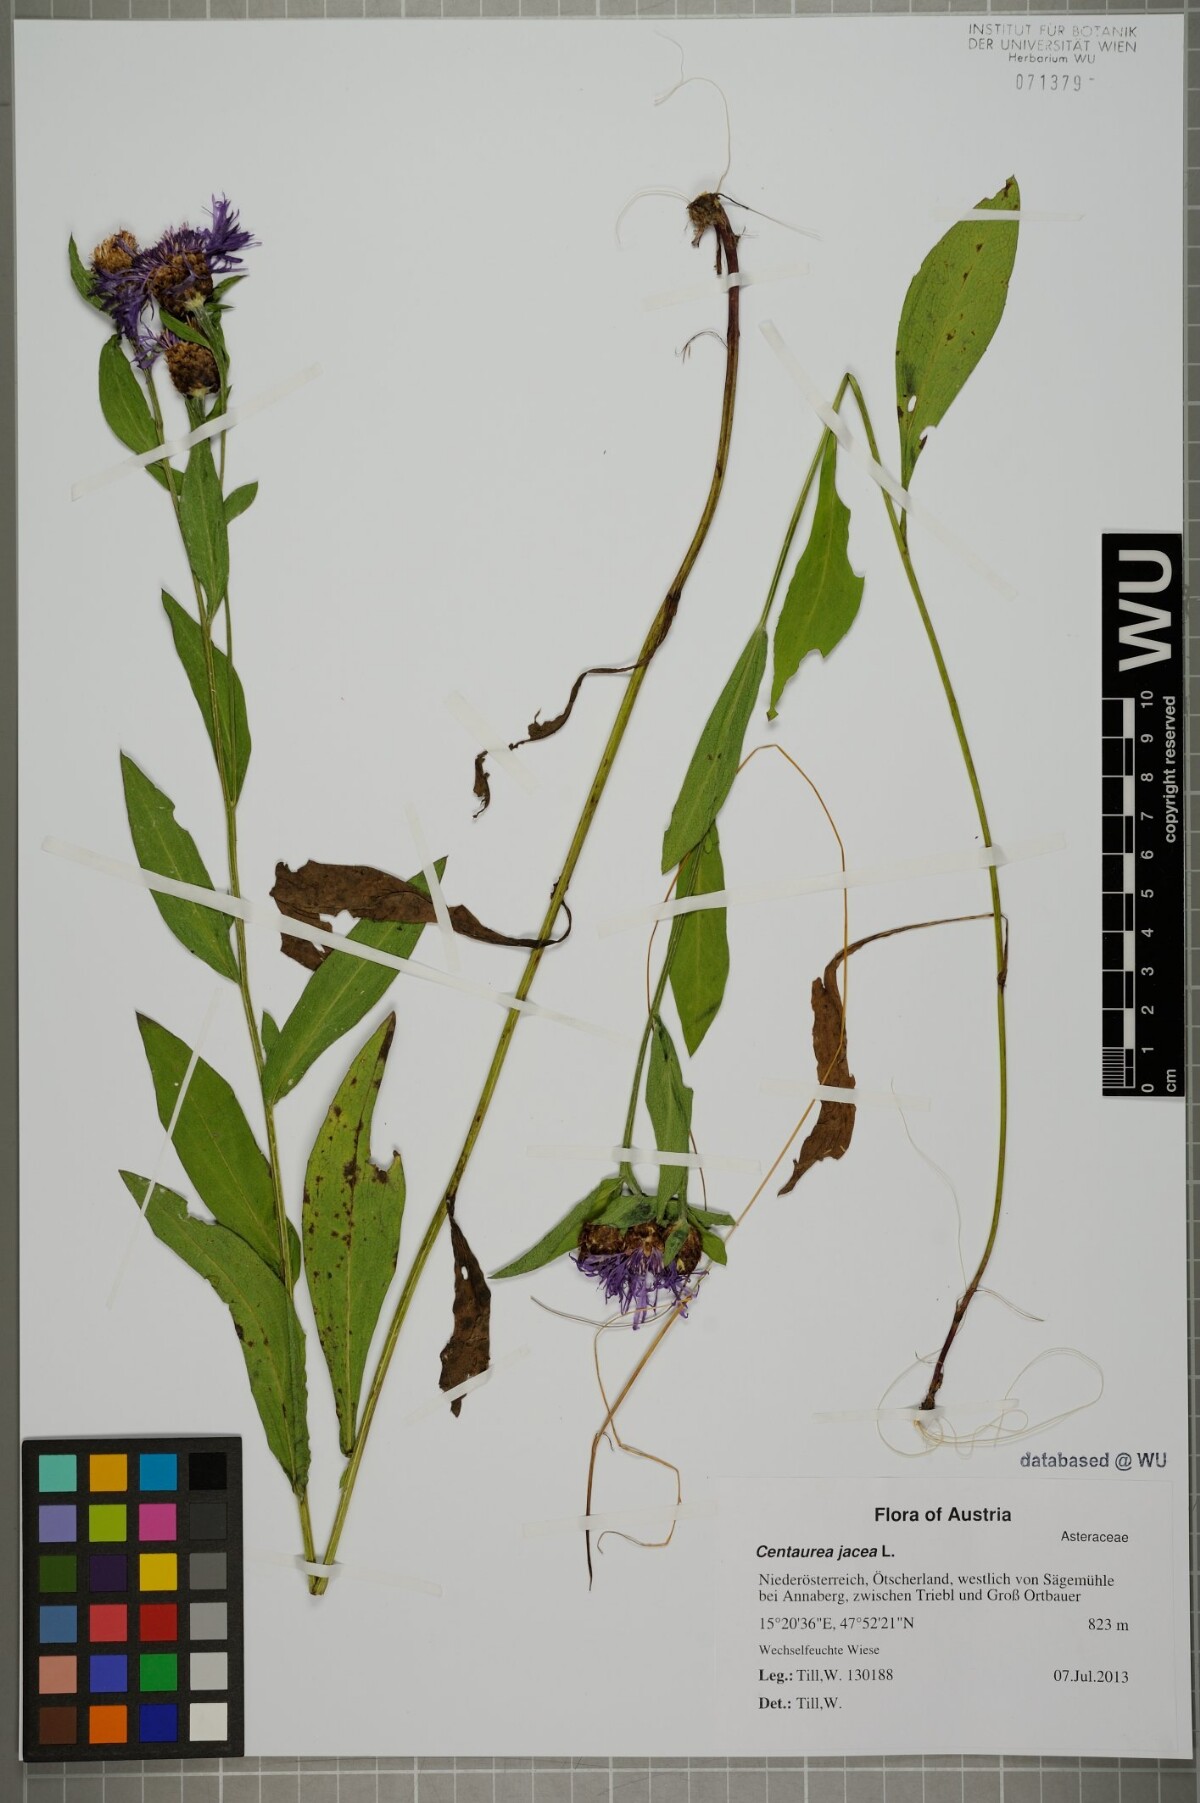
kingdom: Plantae
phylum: Tracheophyta
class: Magnoliopsida
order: Asterales
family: Asteraceae
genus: Centaurea
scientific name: Centaurea jacea
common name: Brown knapweed
